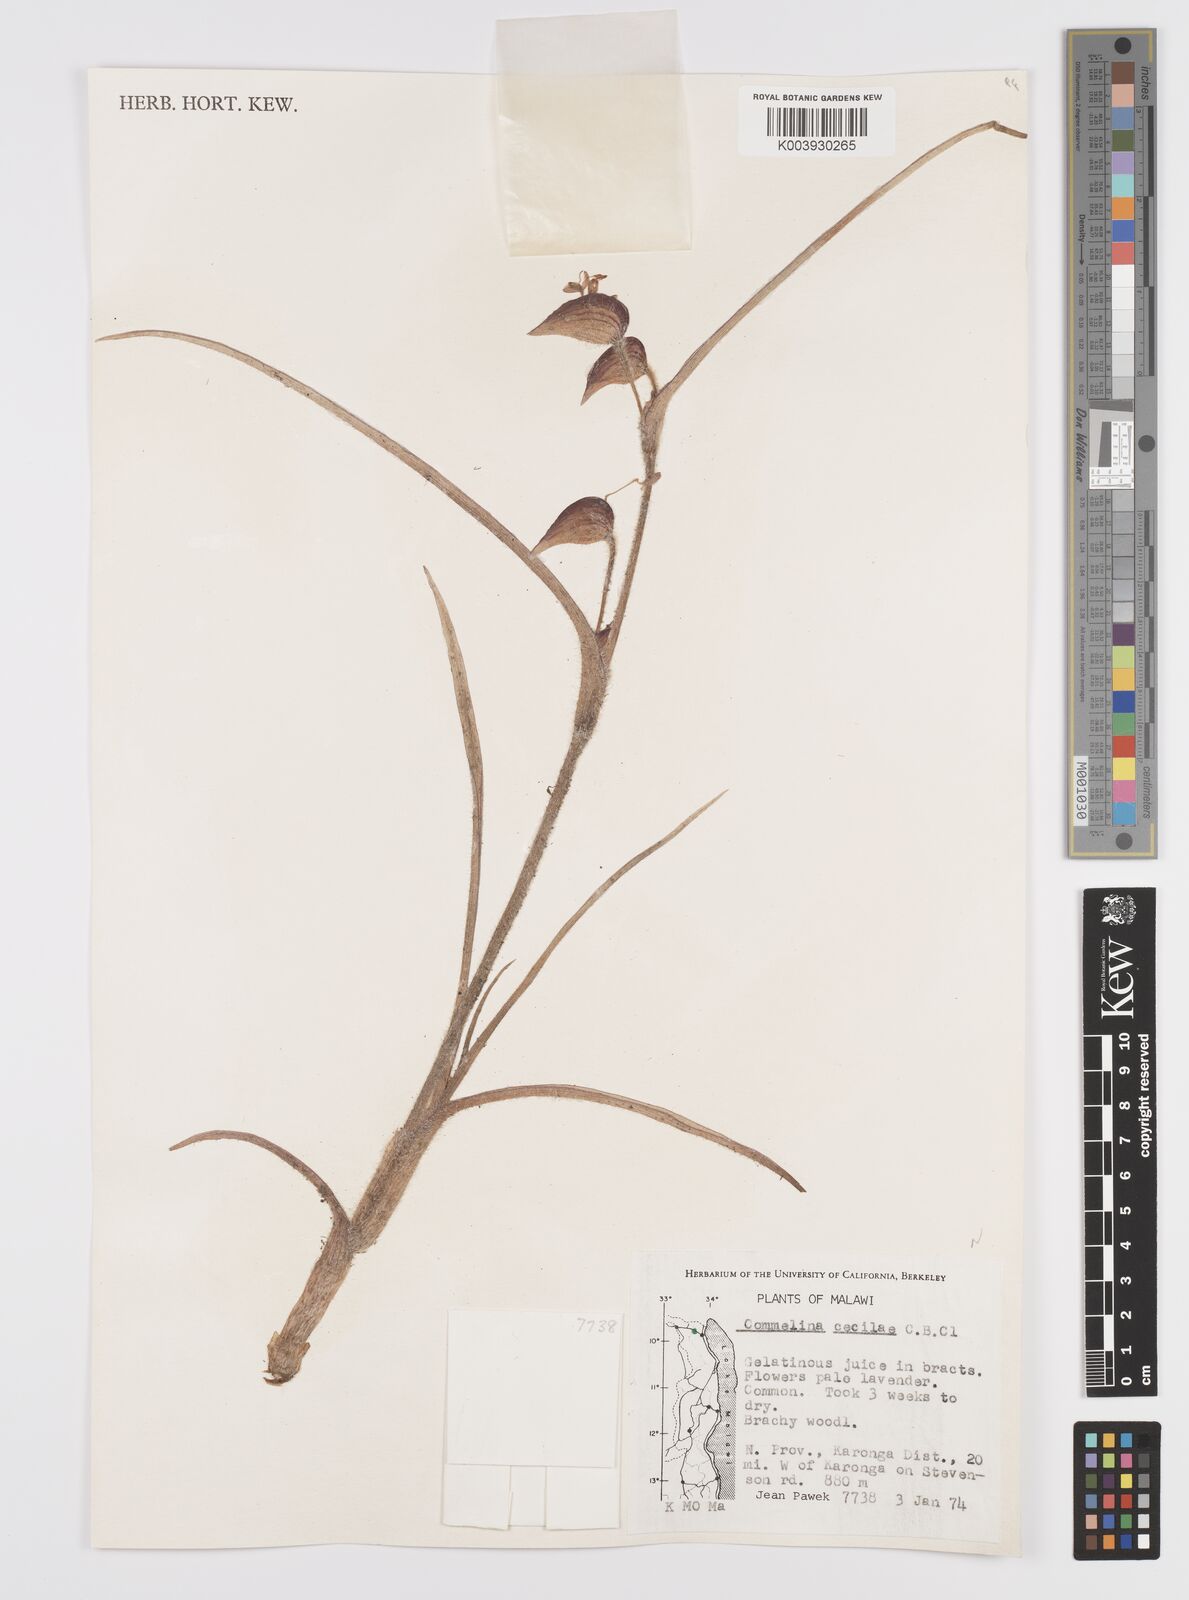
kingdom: Plantae
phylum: Tracheophyta
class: Liliopsida
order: Commelinales
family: Commelinaceae
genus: Commelina
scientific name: Commelina schweinfurthii
